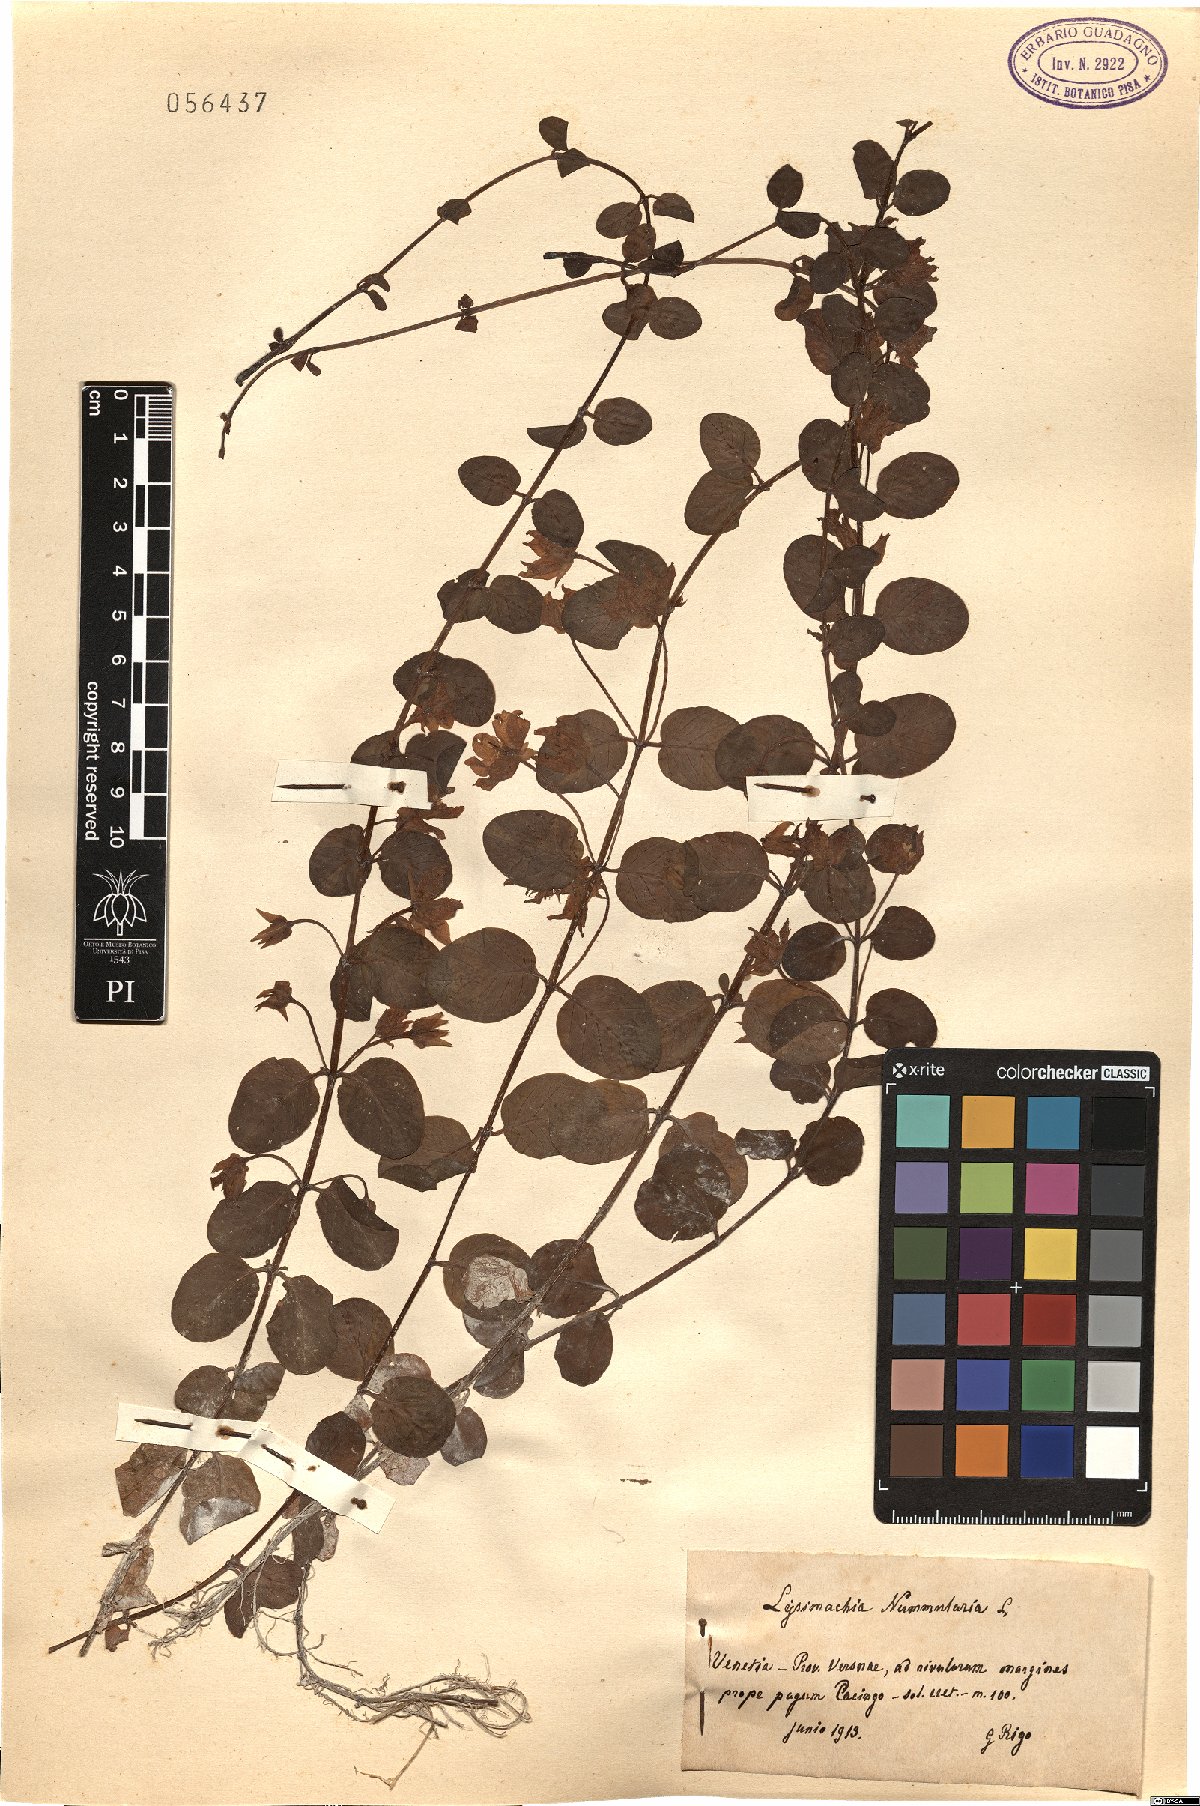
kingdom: Plantae
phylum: Tracheophyta
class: Magnoliopsida
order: Ericales
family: Primulaceae
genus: Lysimachia
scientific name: Lysimachia nummularia
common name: Moneywort
